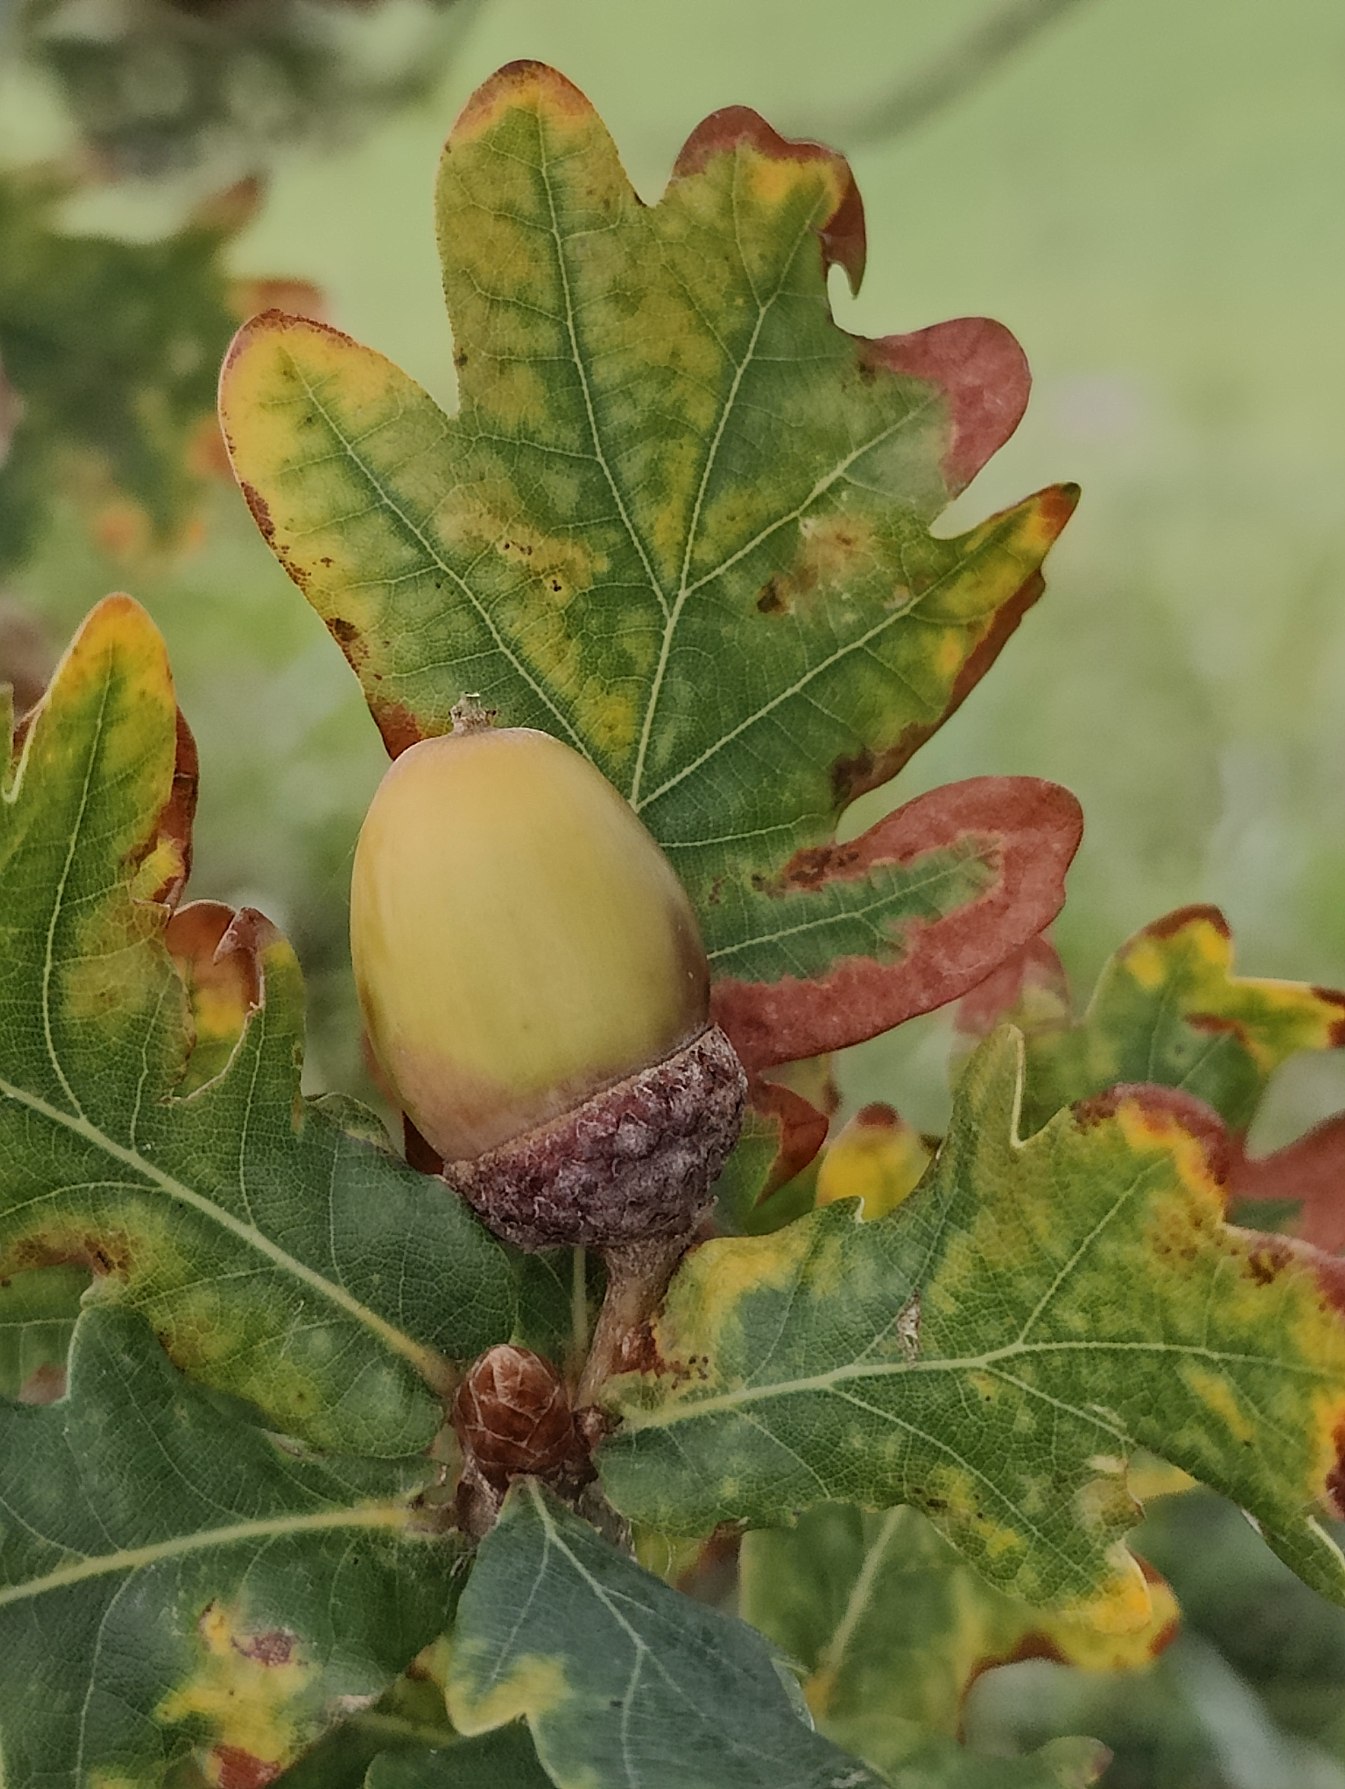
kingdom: Plantae
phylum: Tracheophyta
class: Magnoliopsida
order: Fagales
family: Fagaceae
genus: Quercus
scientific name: Quercus robur
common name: Stilk-eg/almindelig eg
